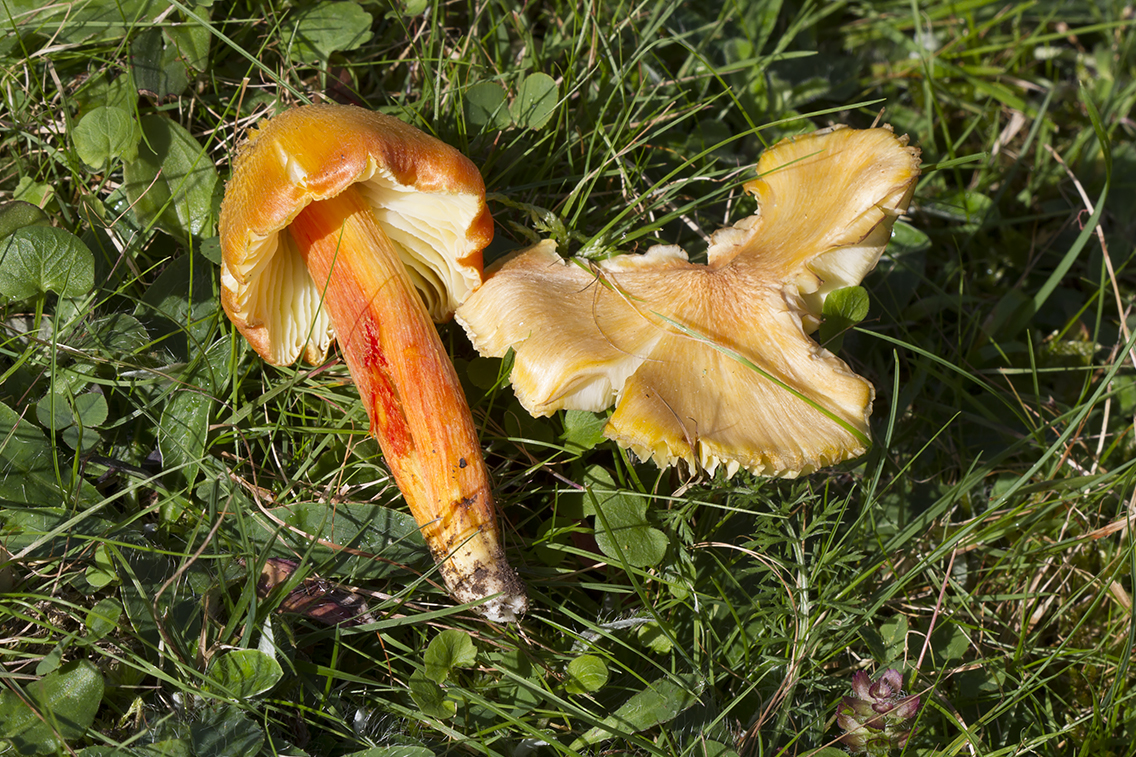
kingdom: Fungi
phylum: Basidiomycota
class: Agaricomycetes
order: Agaricales
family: Hygrophoraceae
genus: Hygrocybe
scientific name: Hygrocybe intermedia
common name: trævlet vokshat
